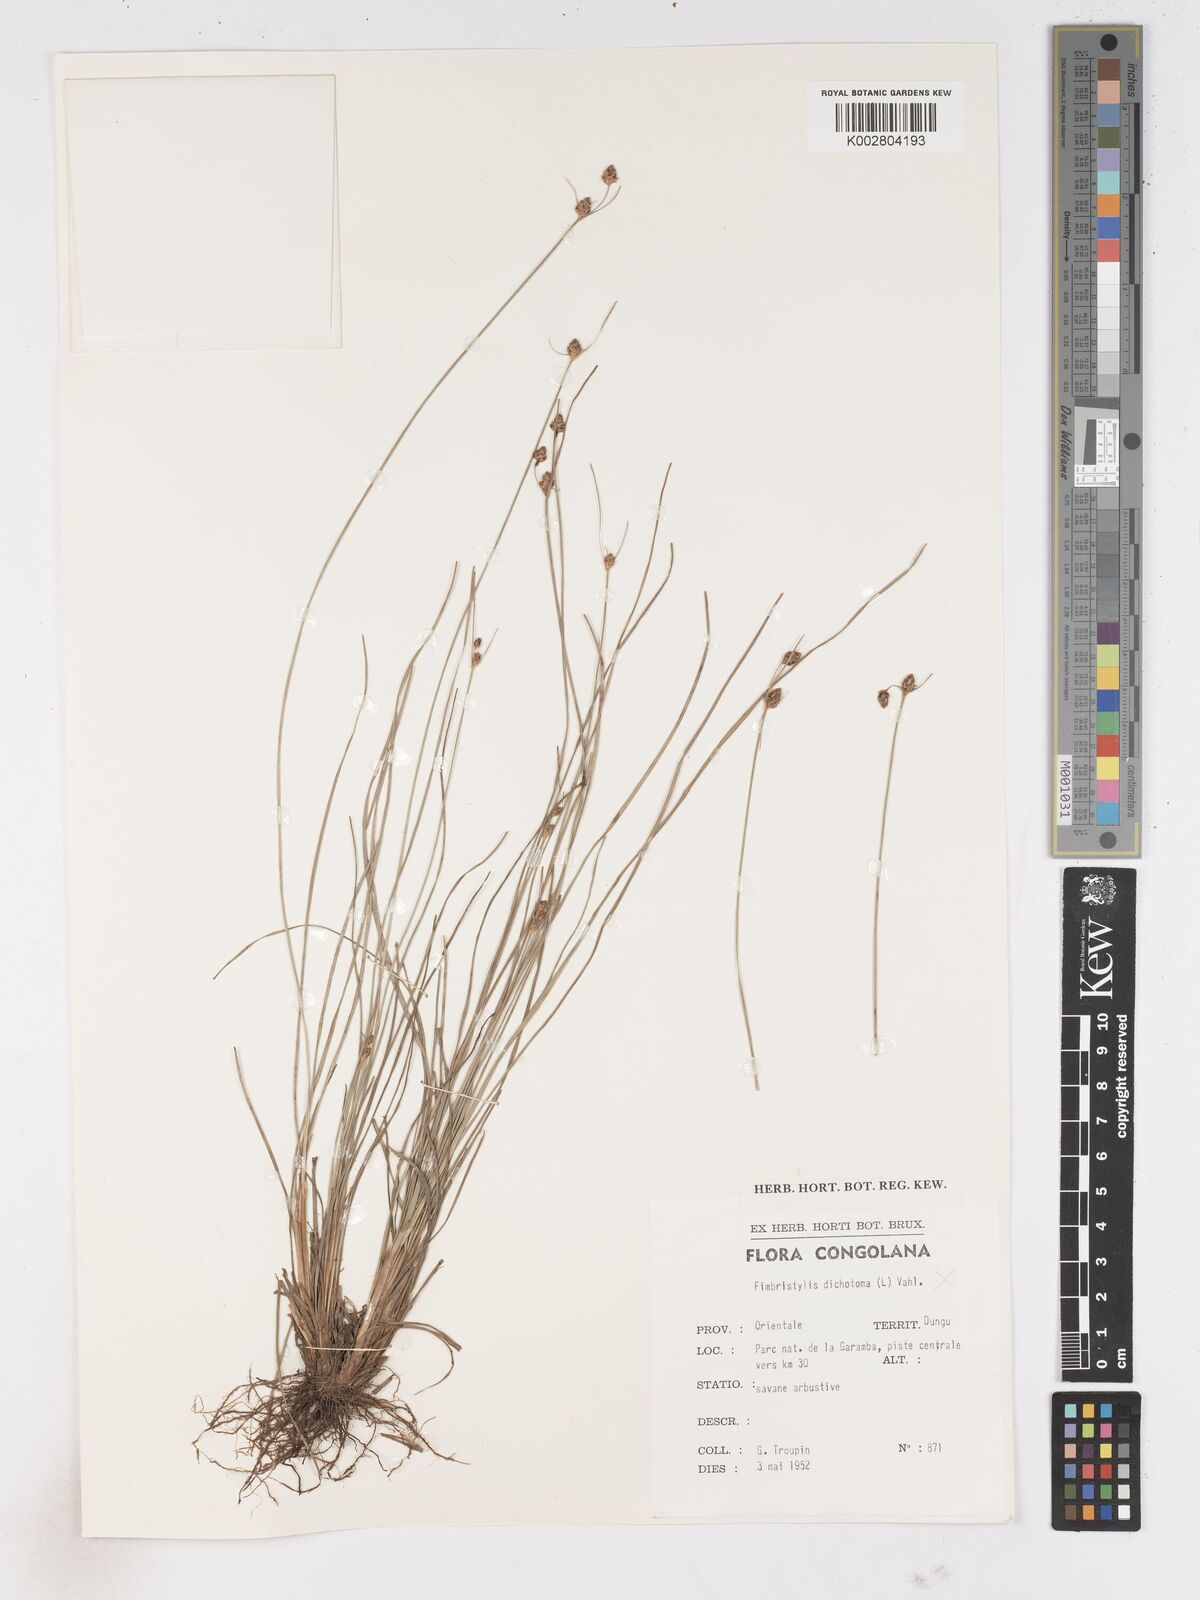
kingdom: Plantae
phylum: Tracheophyta
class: Liliopsida
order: Poales
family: Cyperaceae
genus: Fimbristylis
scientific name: Fimbristylis pilosa
